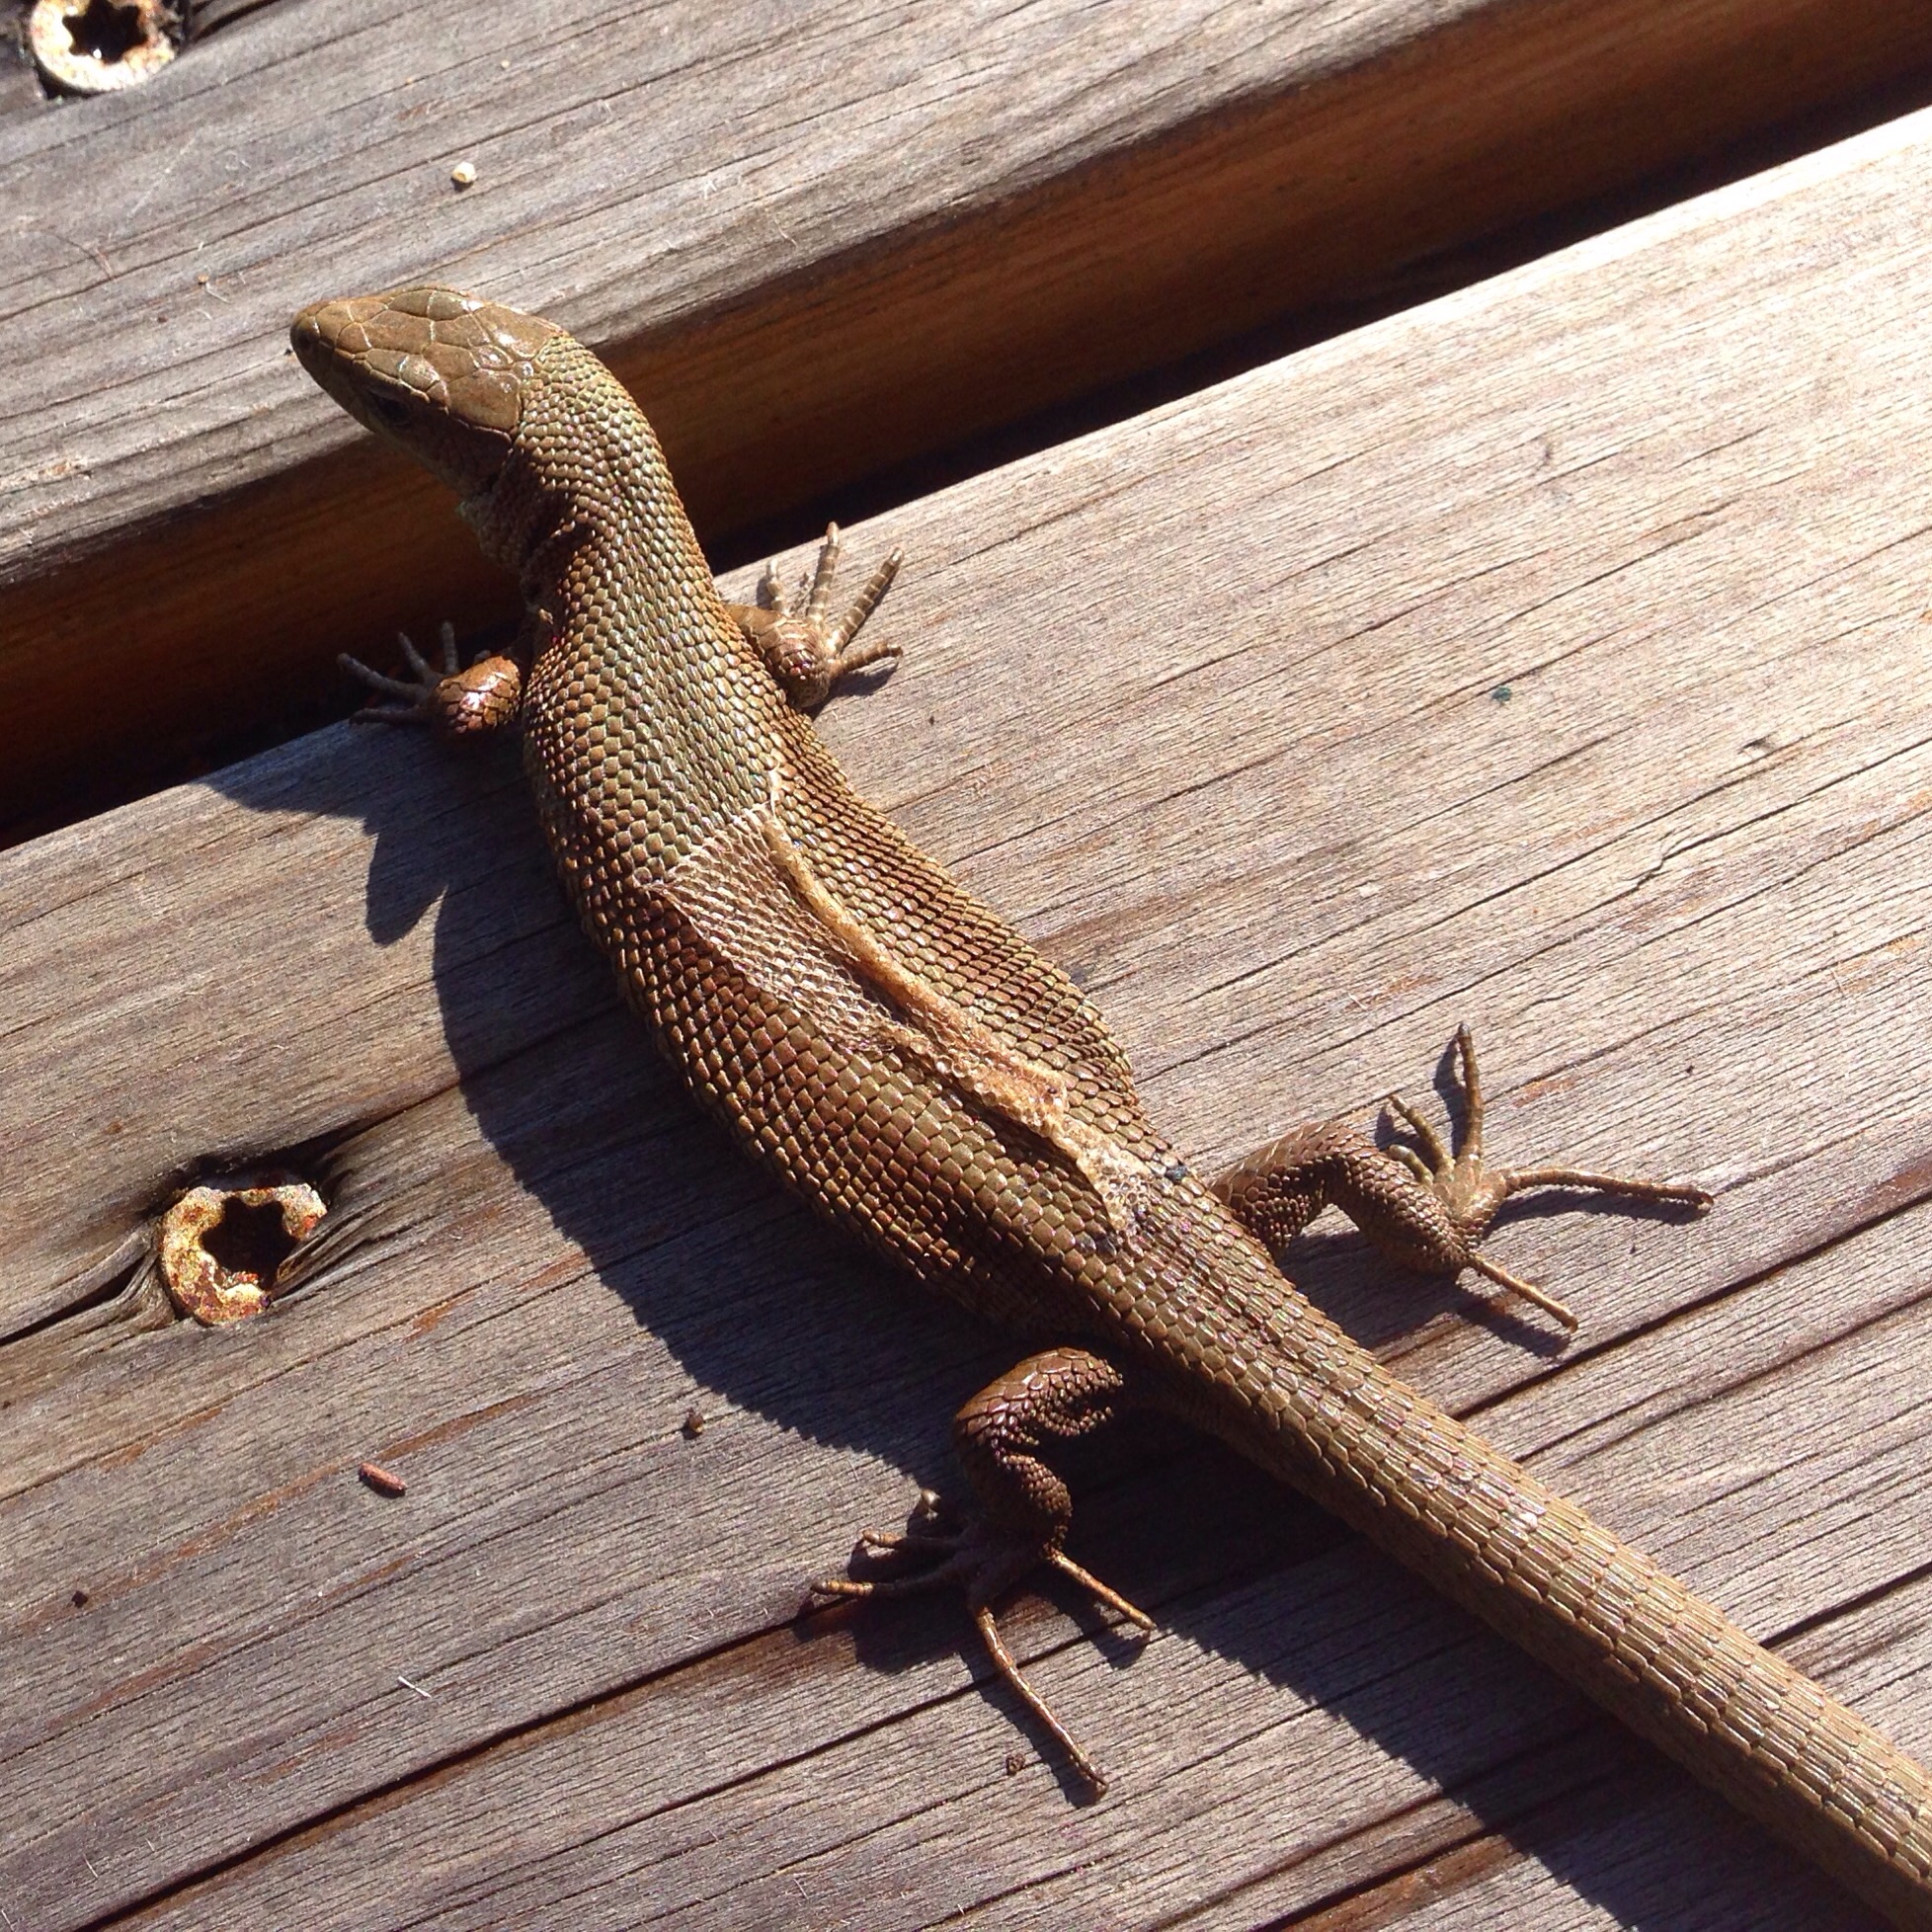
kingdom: Animalia
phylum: Chordata
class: Squamata
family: Lacertidae
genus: Zootoca
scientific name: Zootoca vivipara
